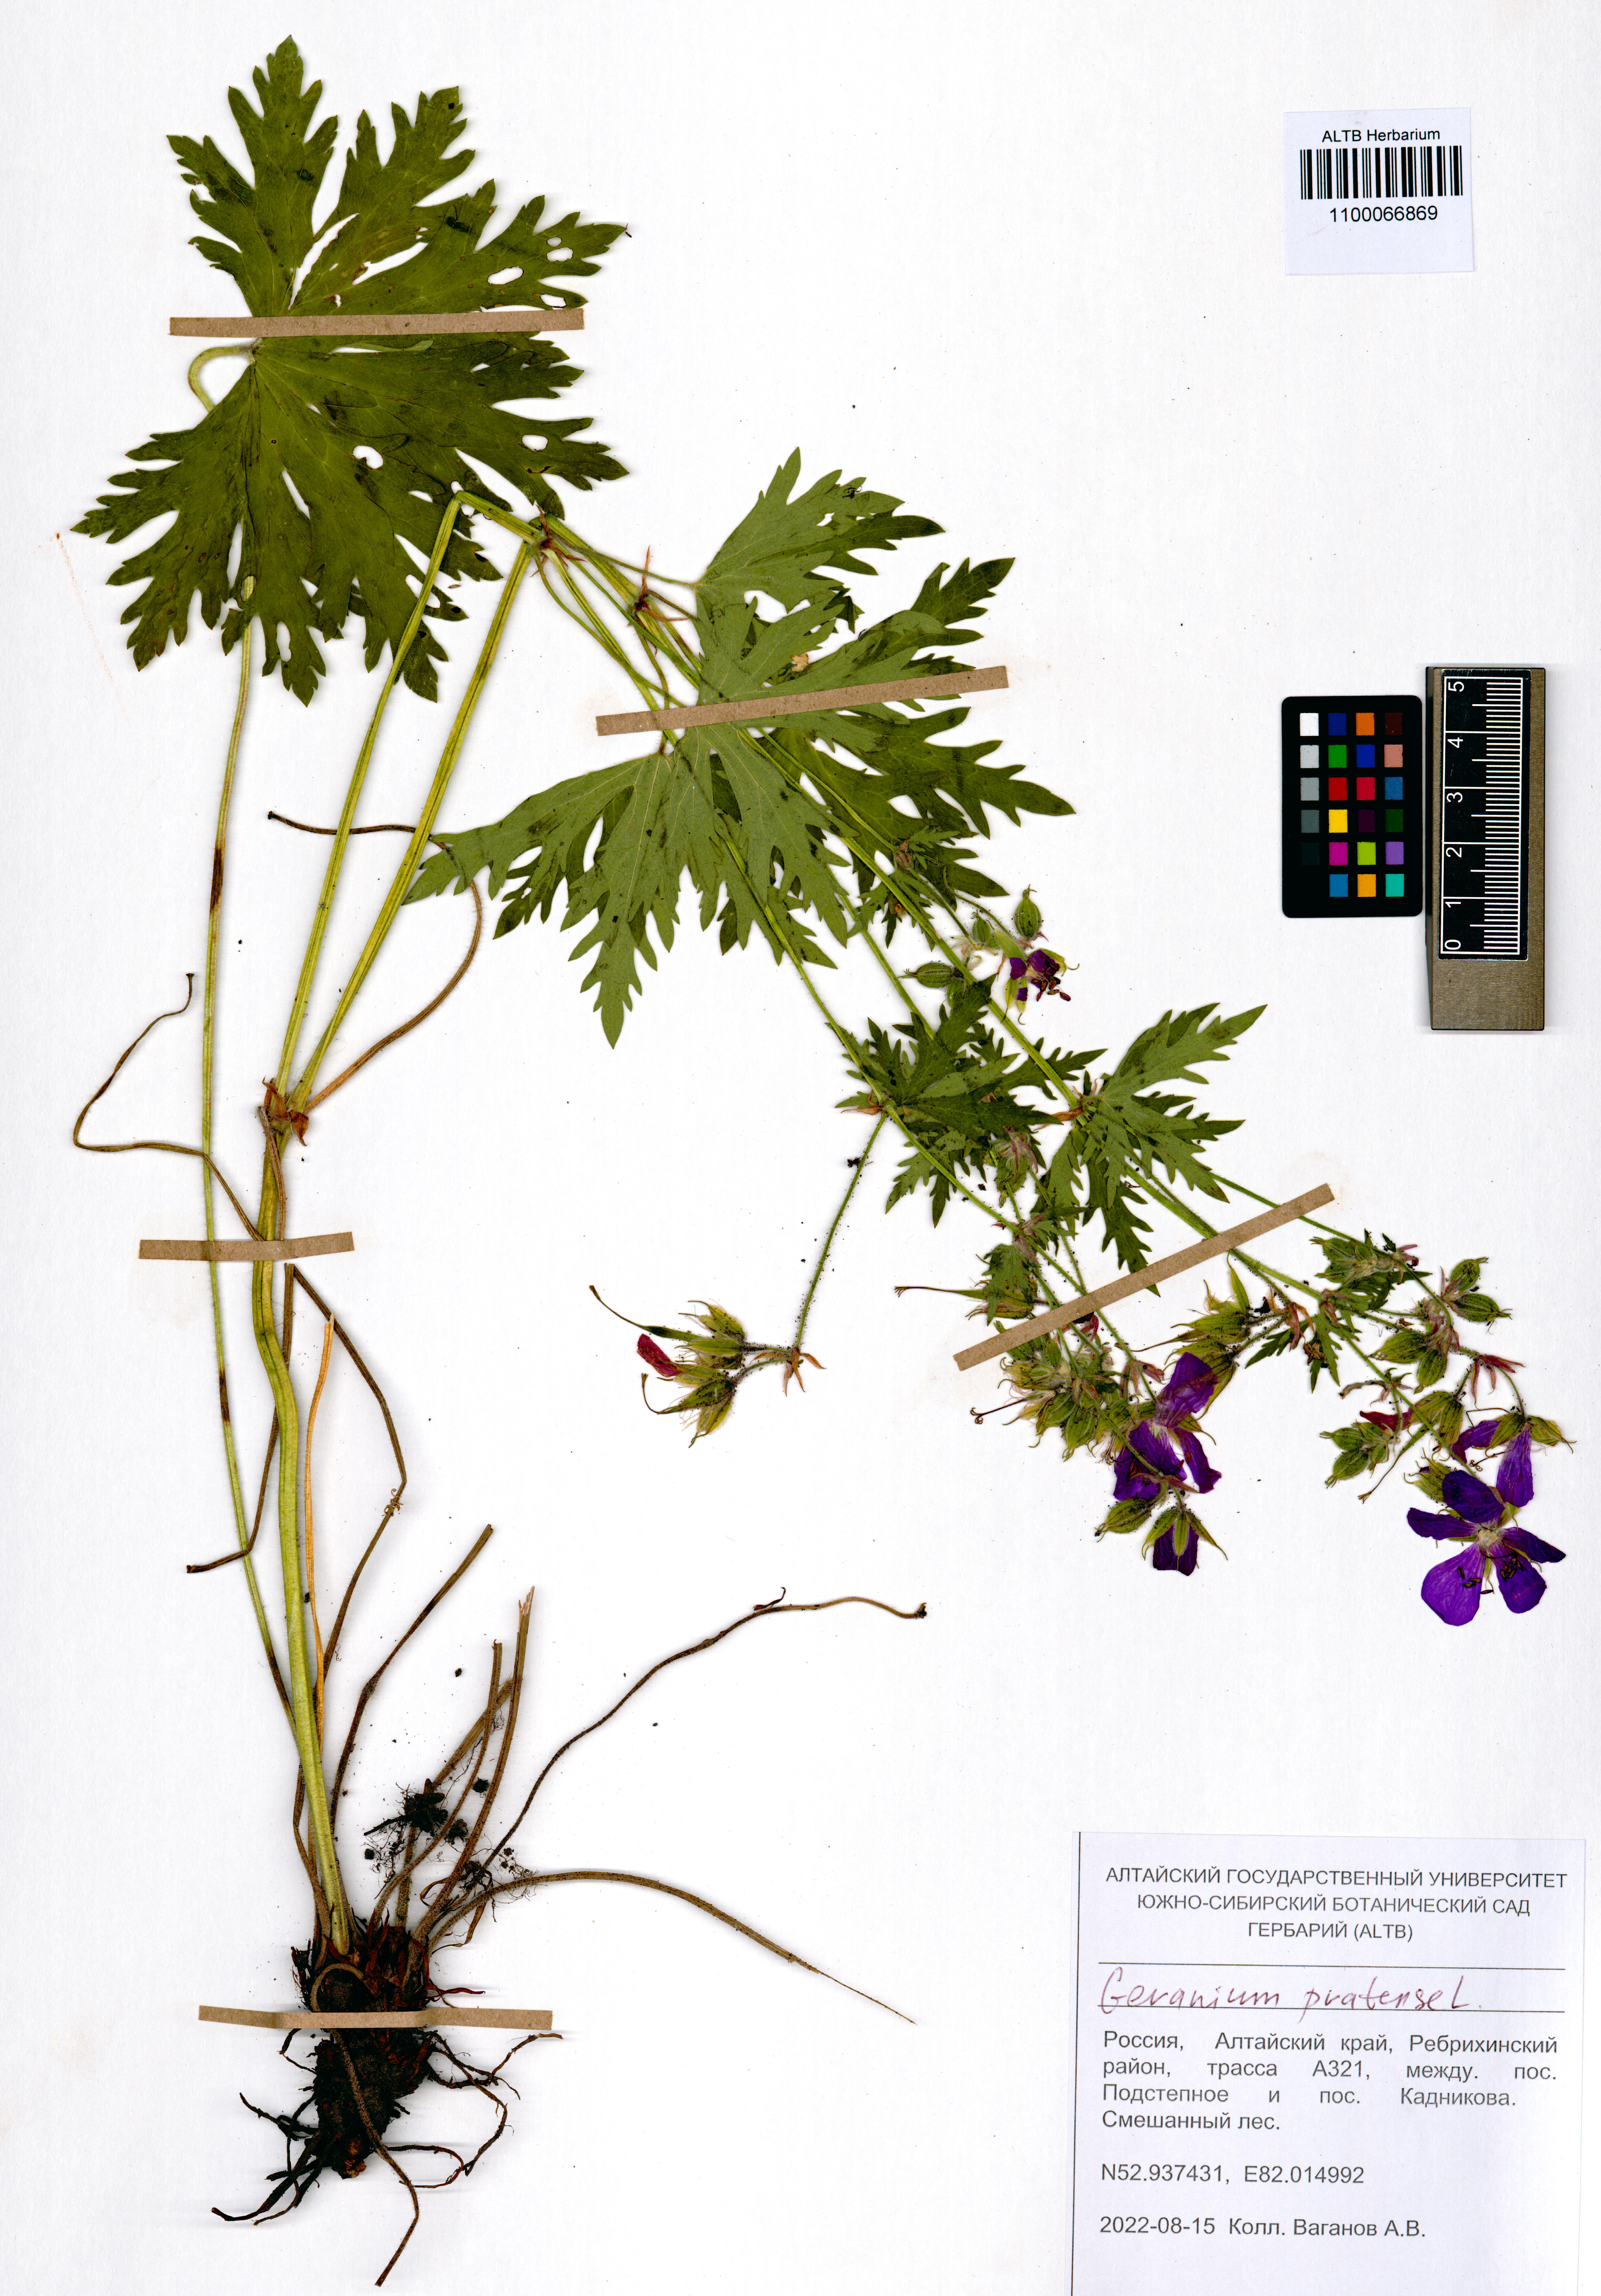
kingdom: Plantae
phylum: Tracheophyta
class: Magnoliopsida
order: Geraniales
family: Geraniaceae
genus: Geranium
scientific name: Geranium pratense
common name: Meadow crane's-bill
